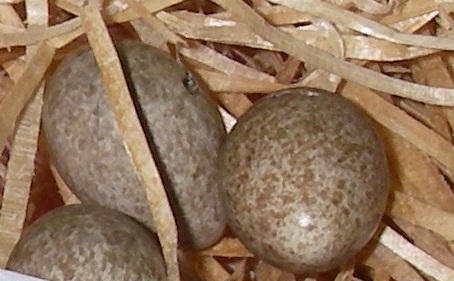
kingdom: Animalia
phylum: Chordata
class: Aves
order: Passeriformes
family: Alaudidae
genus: Alauda
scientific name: Alauda arvensis
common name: Eurasian skylark
